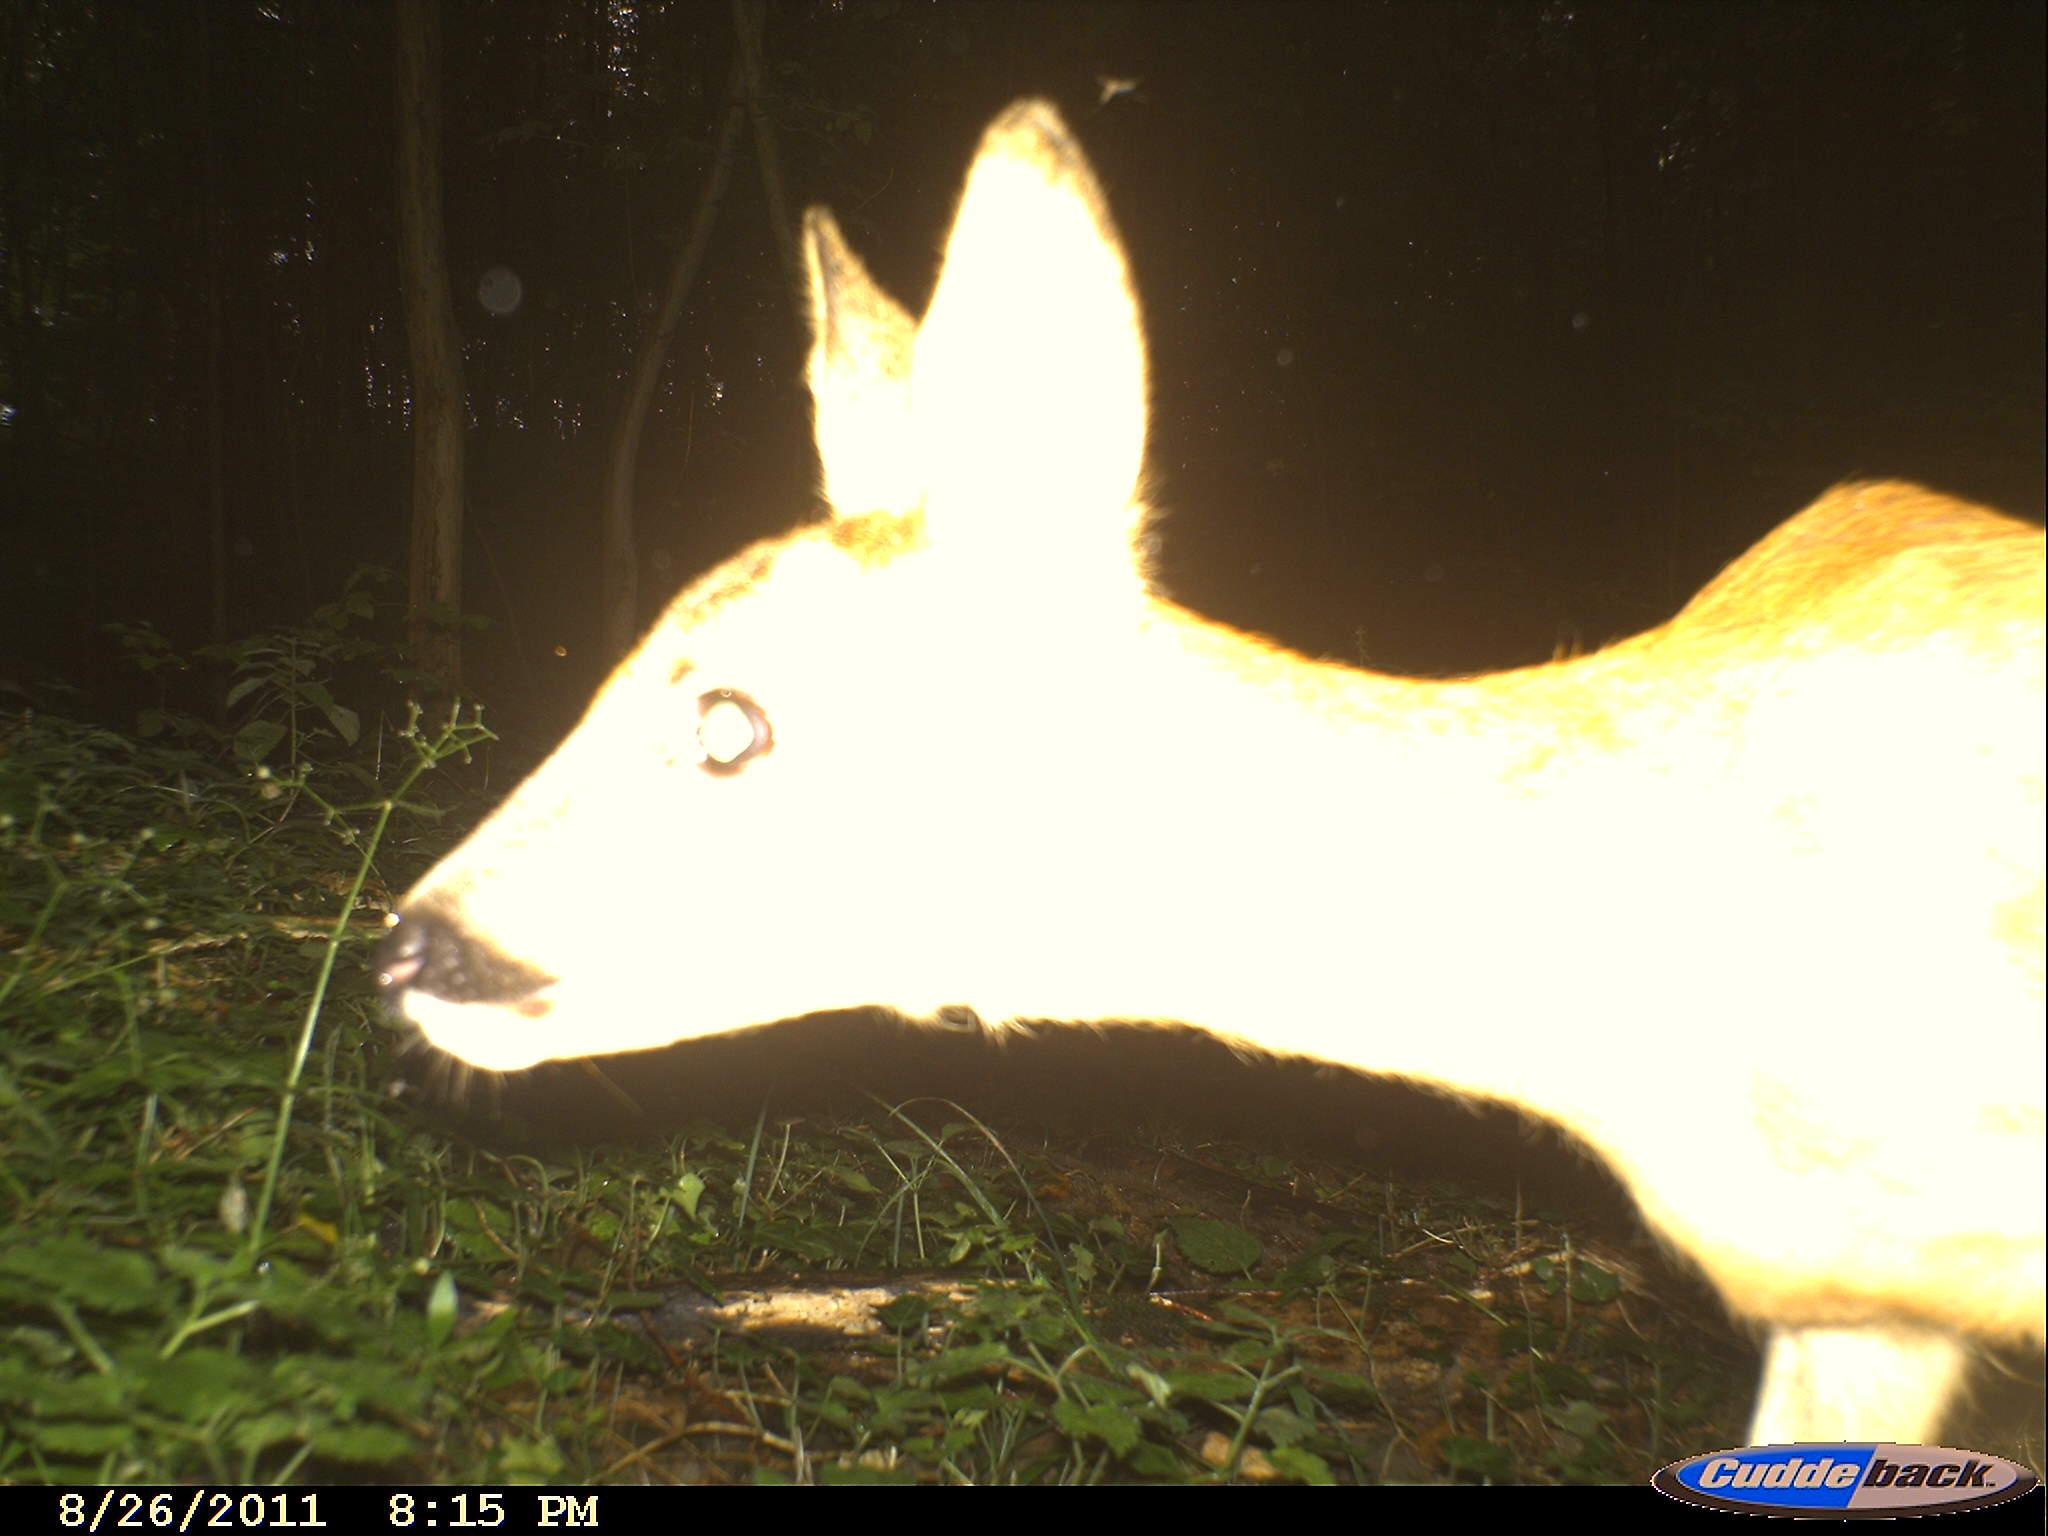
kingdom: Animalia
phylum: Chordata
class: Mammalia
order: Artiodactyla
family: Cervidae
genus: Capreolus
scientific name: Capreolus capreolus
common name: Western roe deer
